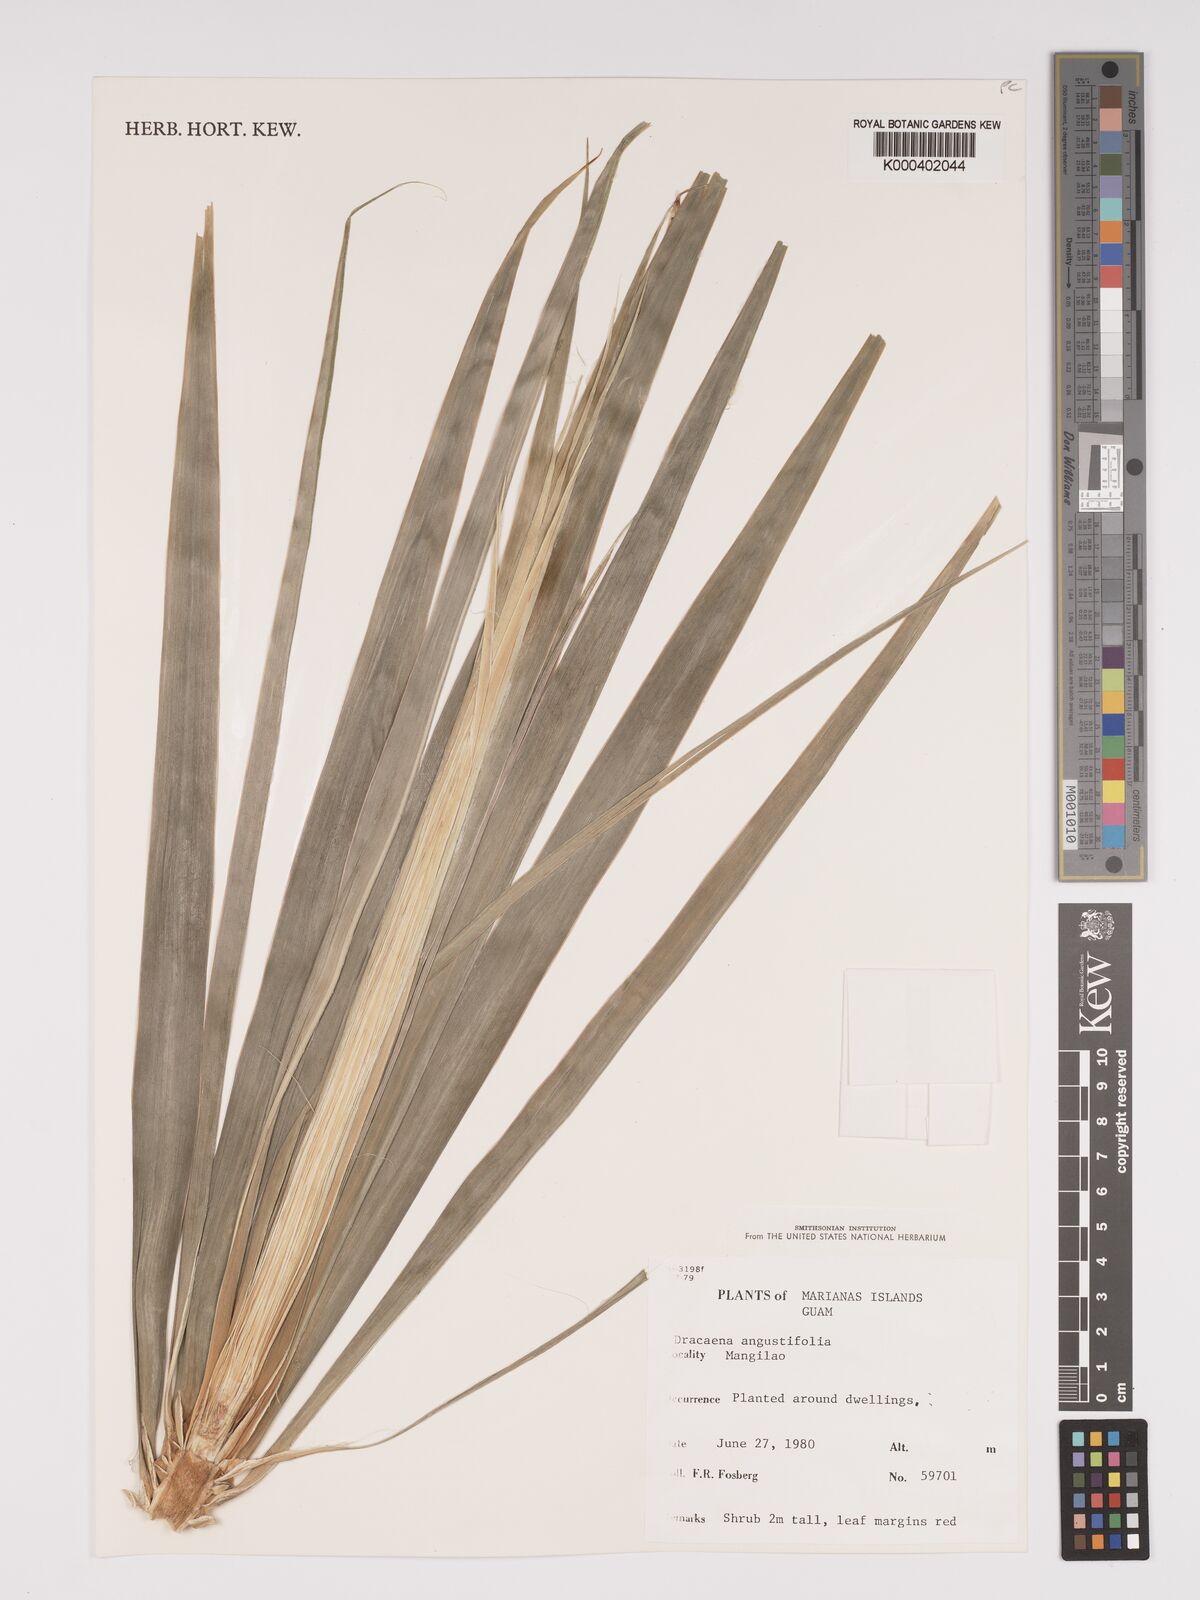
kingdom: Plantae
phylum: Tracheophyta
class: Liliopsida
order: Asparagales
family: Asparagaceae
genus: Dracaena
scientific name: Dracaena angustifolia
